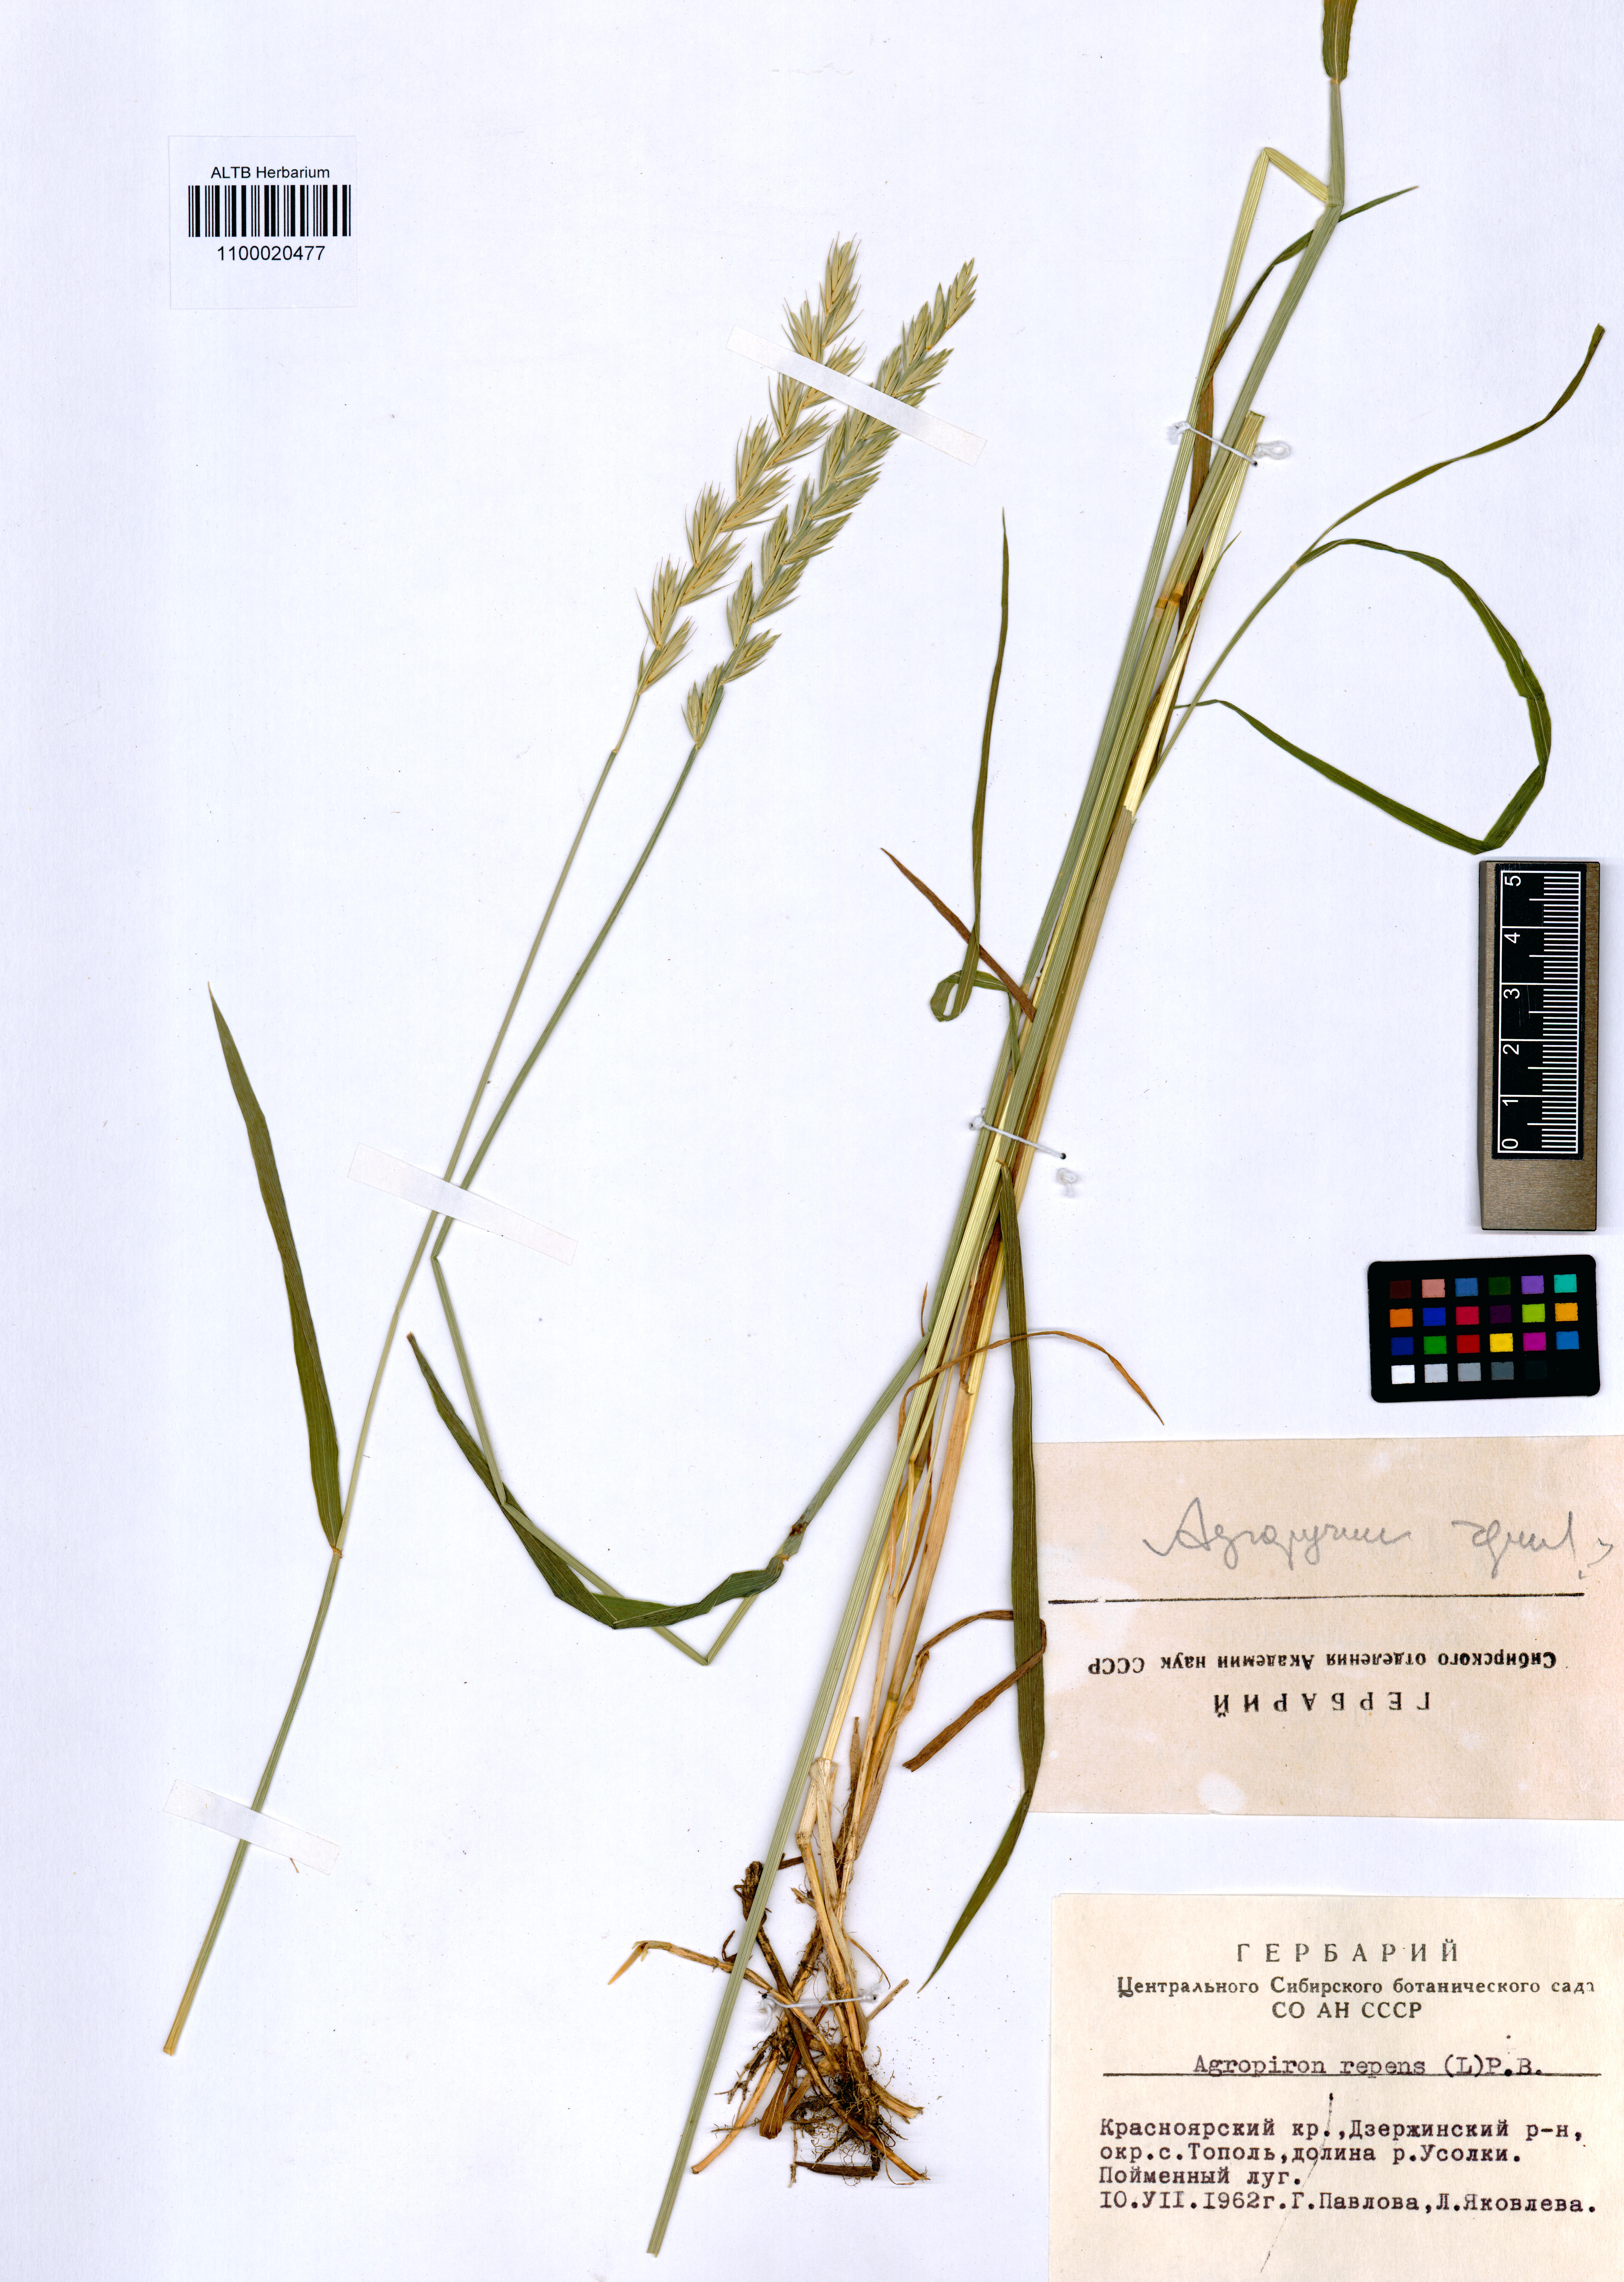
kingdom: Plantae
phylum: Tracheophyta
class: Liliopsida
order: Poales
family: Poaceae
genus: Elymus
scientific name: Elymus repens
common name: Quackgrass
